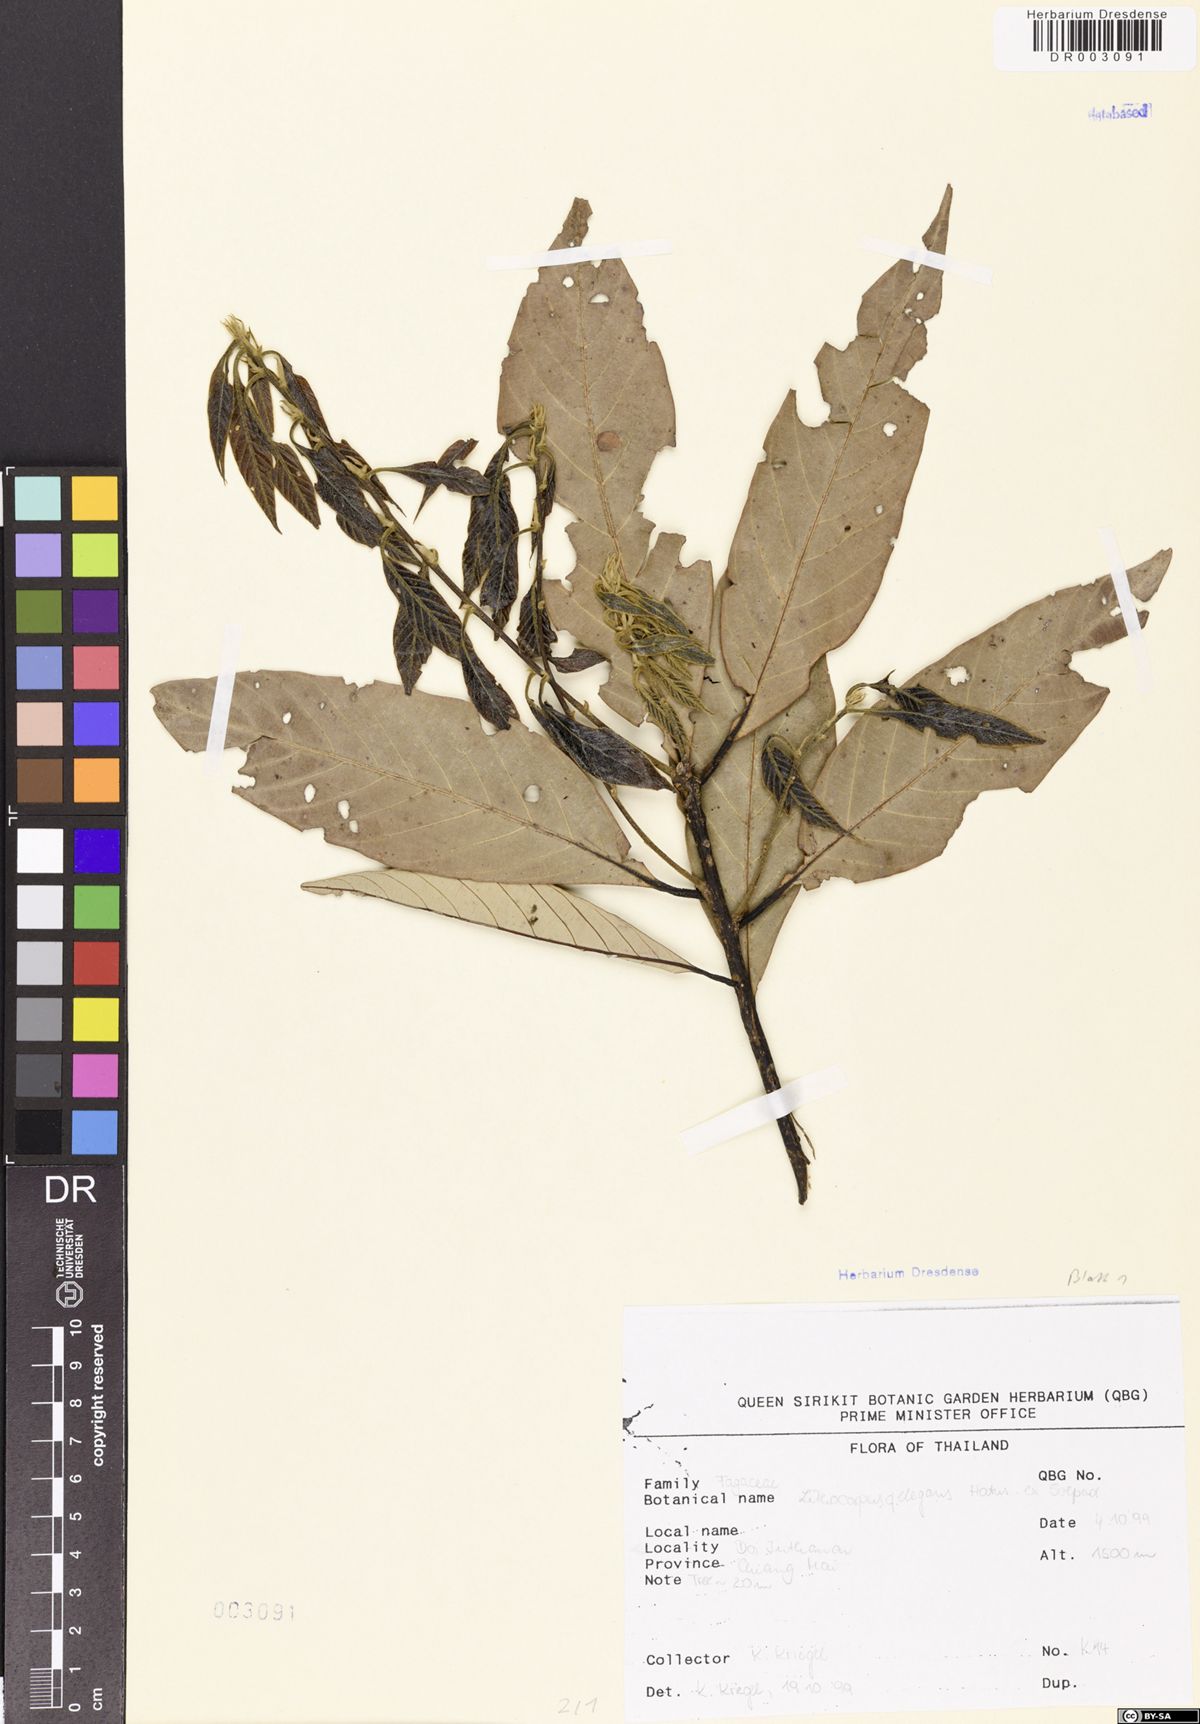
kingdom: Plantae
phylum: Tracheophyta
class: Magnoliopsida
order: Fagales
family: Fagaceae
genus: Lithocarpus
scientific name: Lithocarpus elegans
